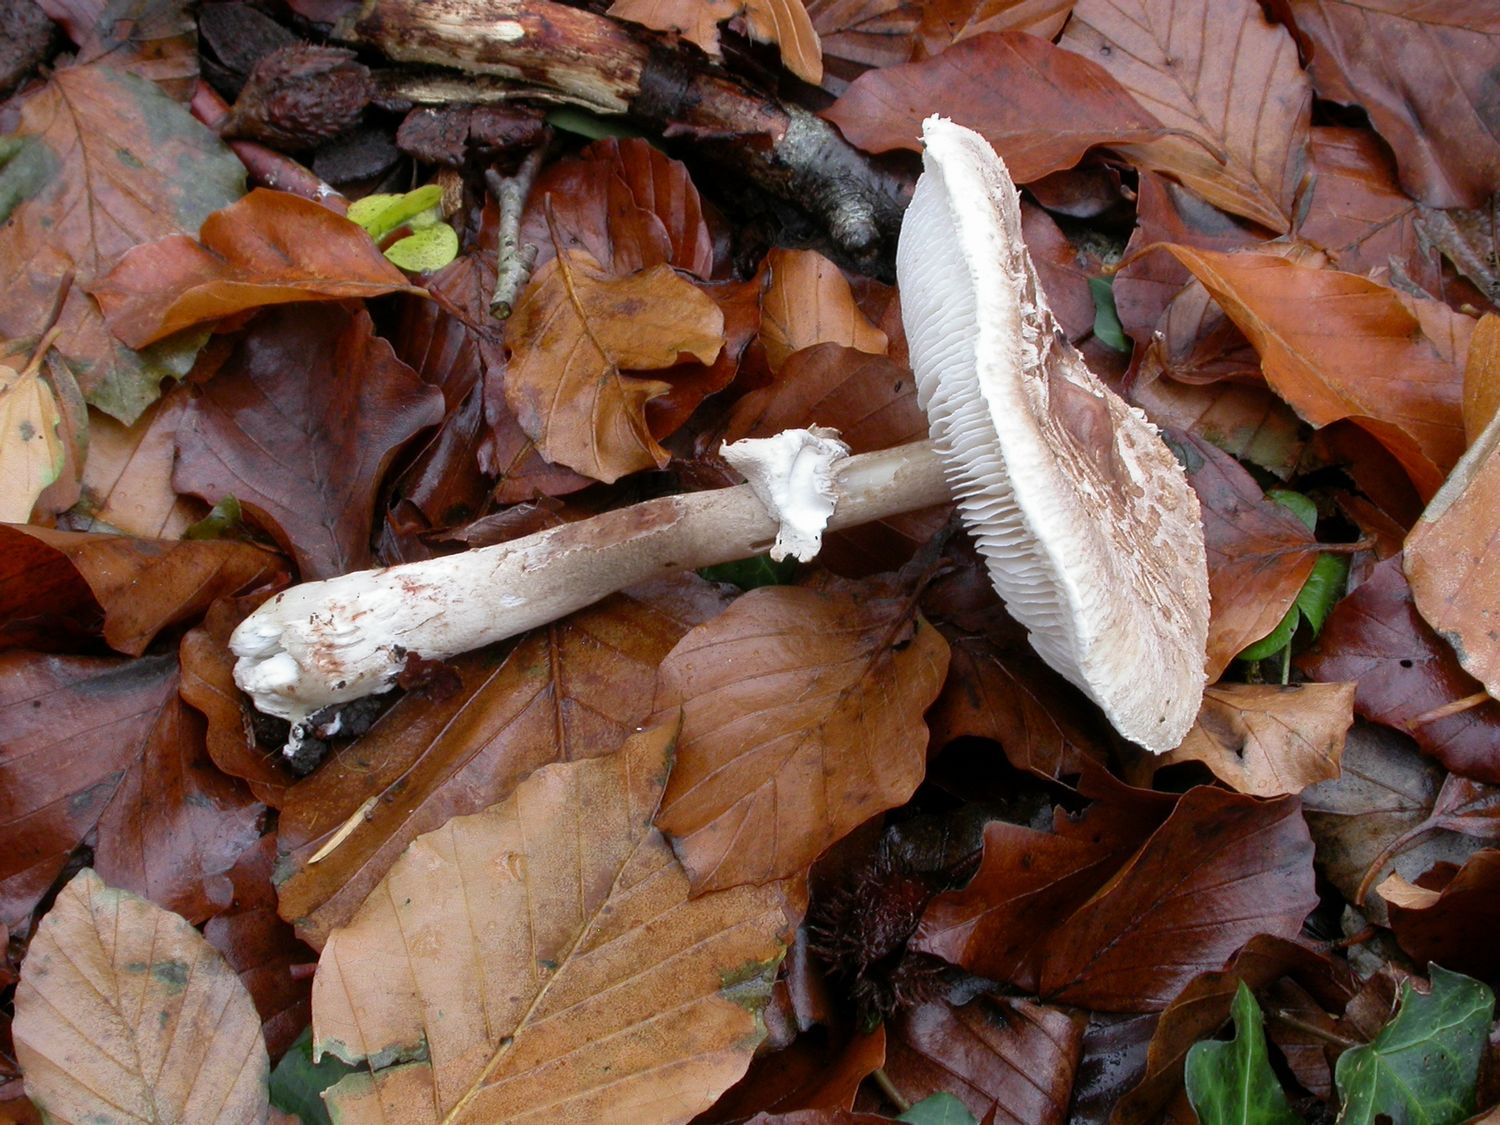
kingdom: Fungi
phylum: Basidiomycota
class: Agaricomycetes
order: Agaricales
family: Agaricaceae
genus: Chlorophyllum
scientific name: Chlorophyllum olivieri
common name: almindelig rabarberhat
